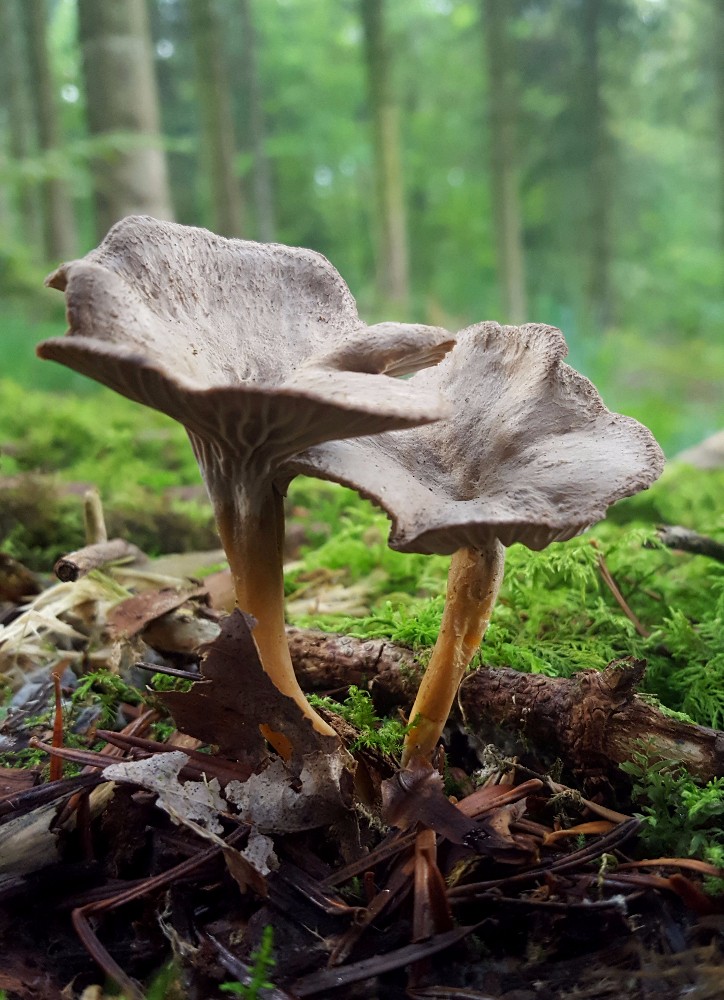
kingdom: Fungi
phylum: Basidiomycota
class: Agaricomycetes
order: Cantharellales
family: Hydnaceae
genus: Craterellus
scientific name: Craterellus tubaeformis
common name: tragt-kantarel
